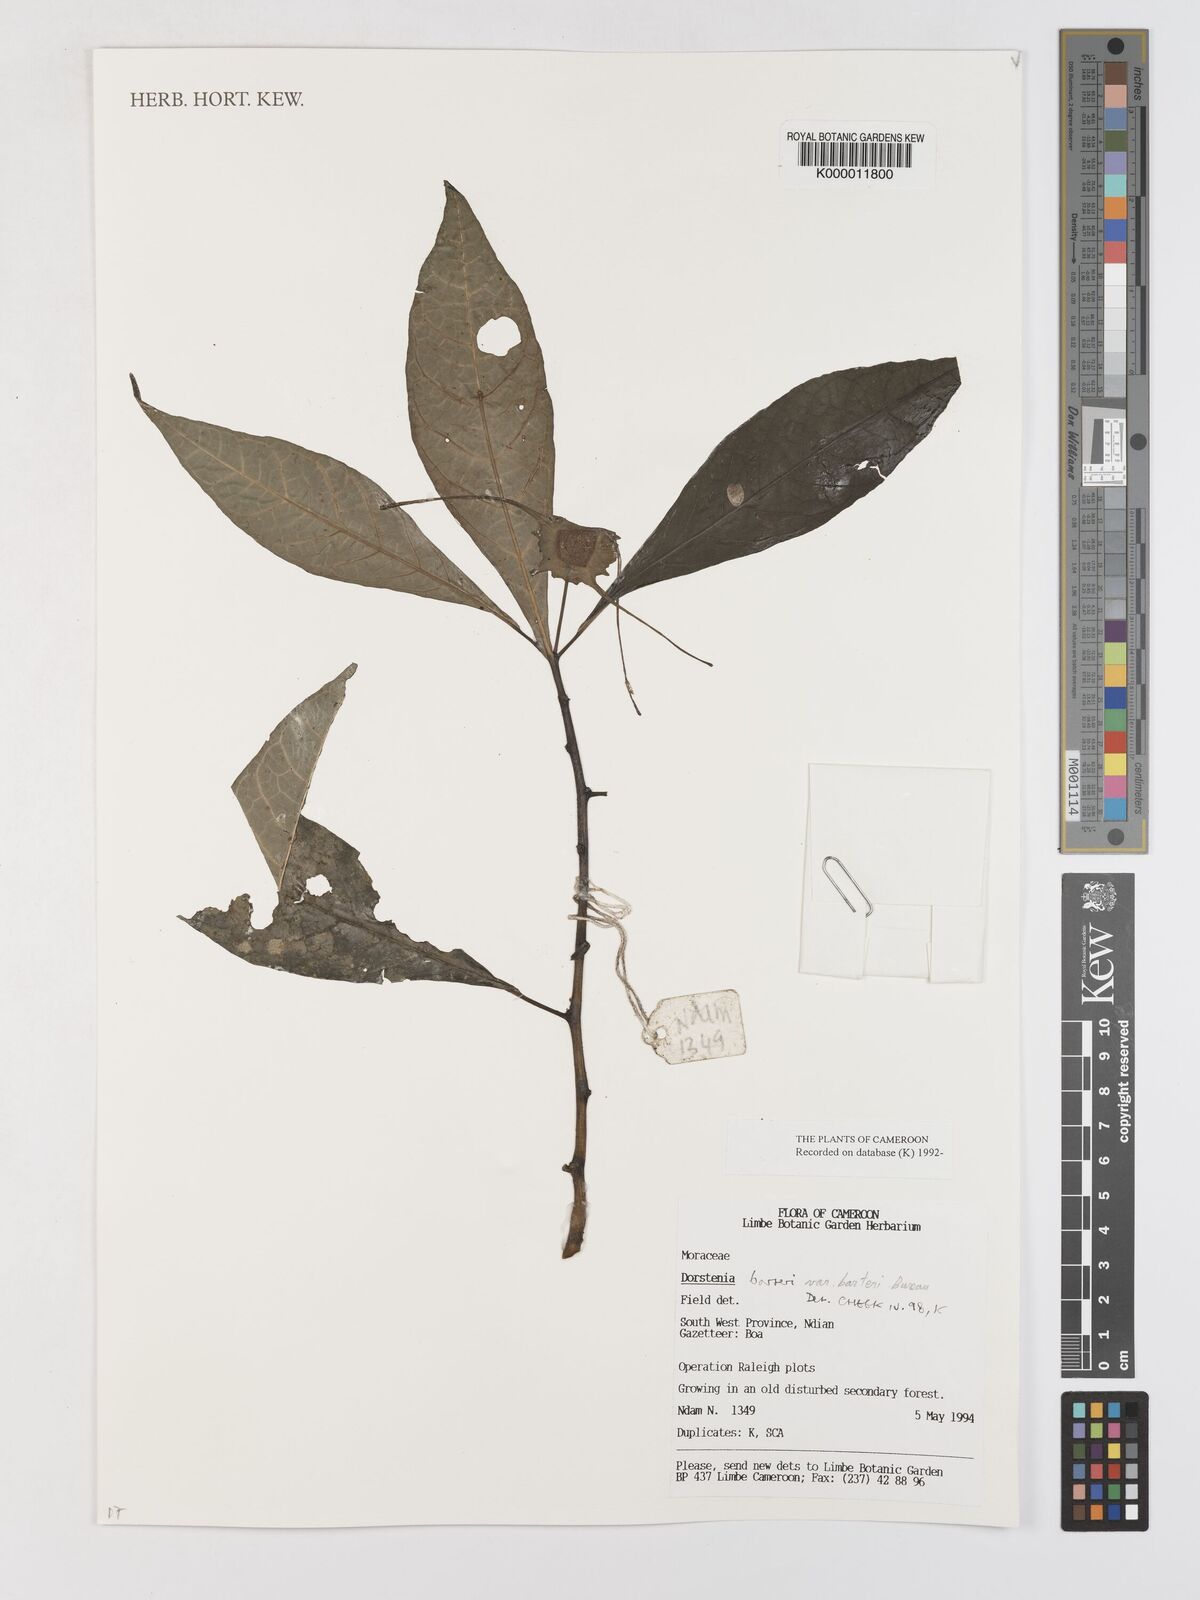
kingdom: Plantae
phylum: Tracheophyta
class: Magnoliopsida
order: Rosales
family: Moraceae
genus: Dorstenia
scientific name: Dorstenia barteri
